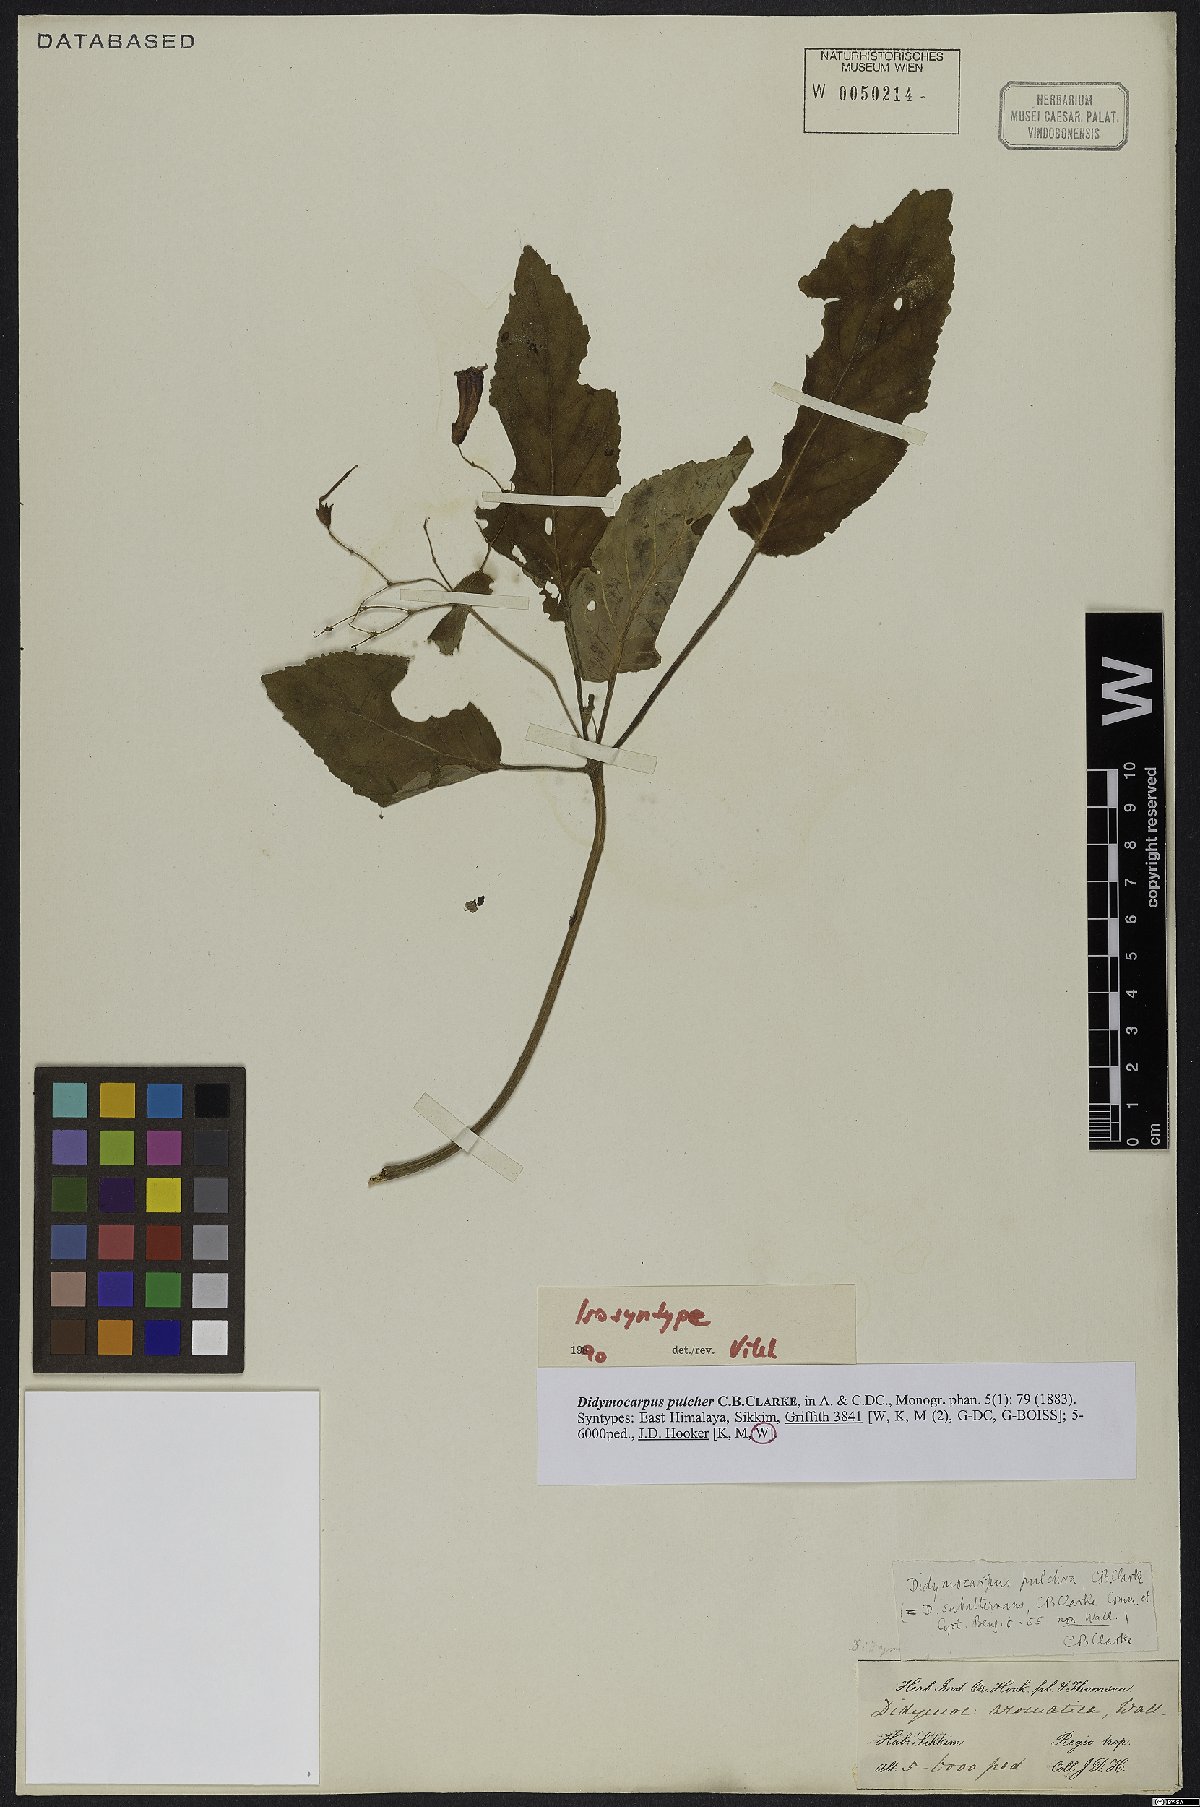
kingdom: Plantae
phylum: Tracheophyta
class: Magnoliopsida
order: Lamiales
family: Gesneriaceae
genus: Didymocarpus
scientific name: Didymocarpus punduanus
